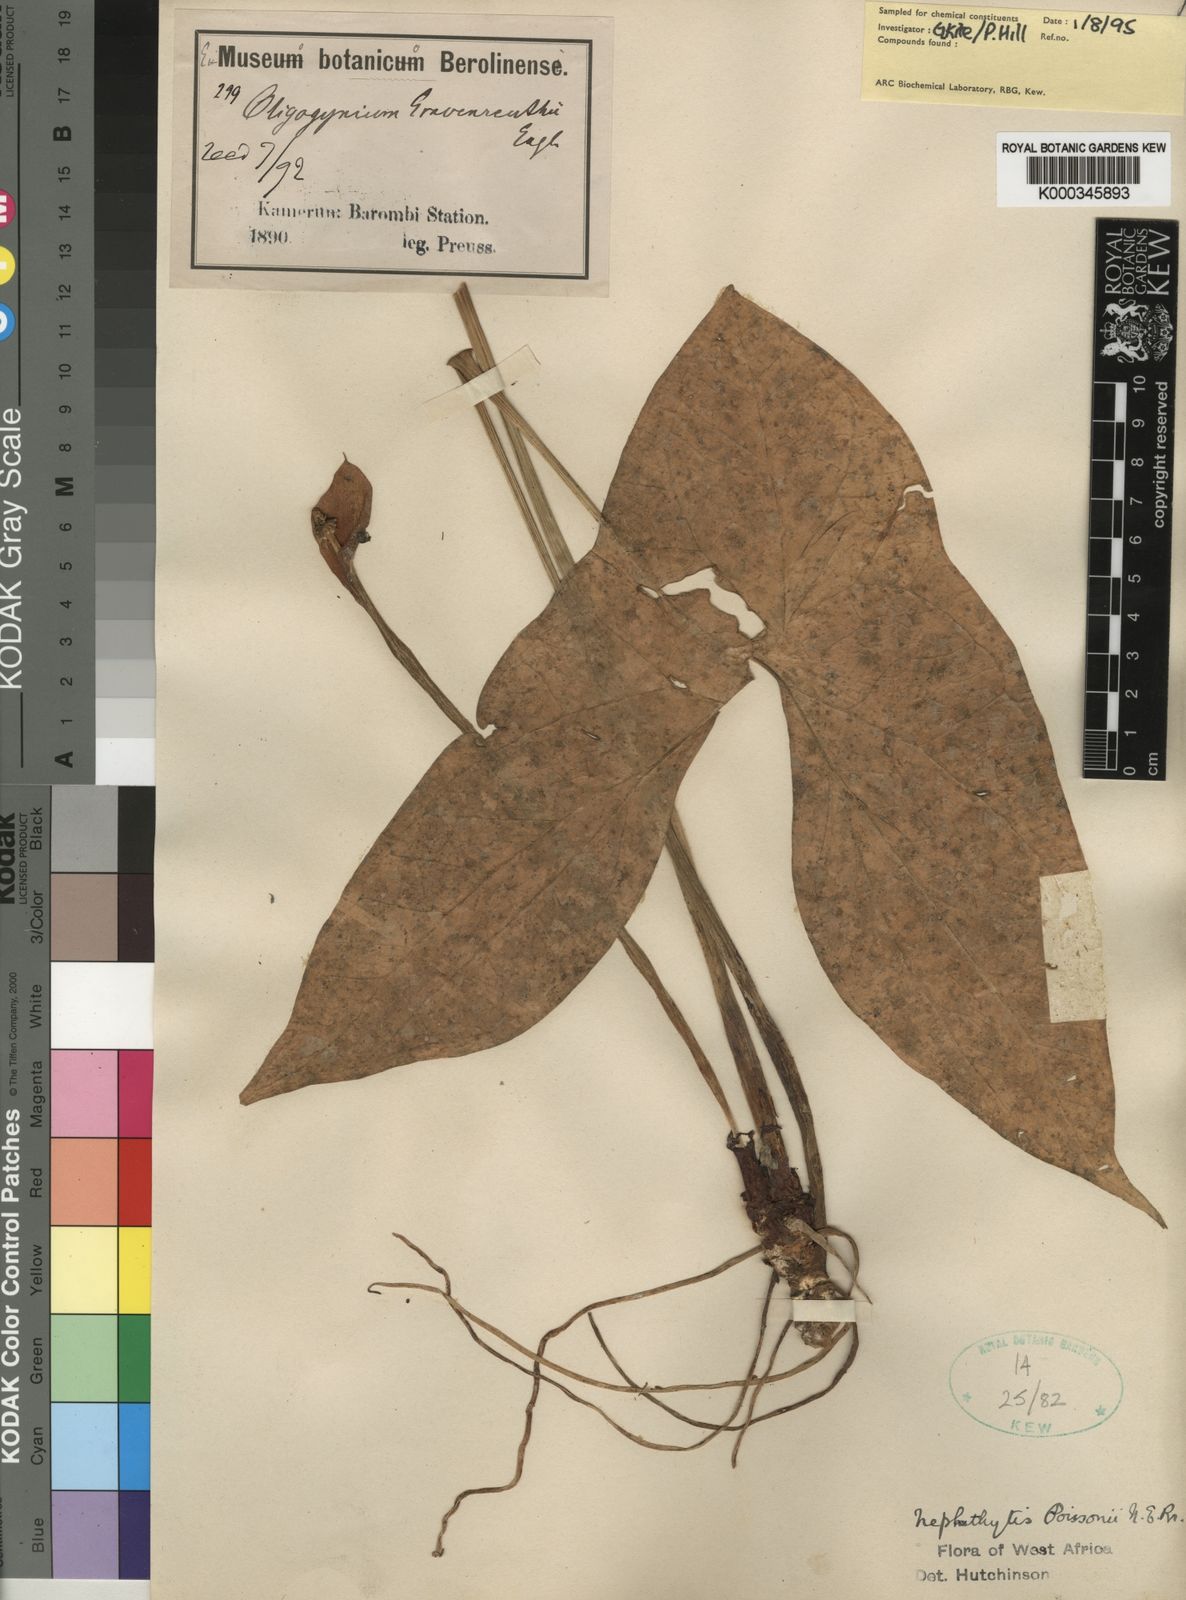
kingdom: Plantae
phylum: Tracheophyta
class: Liliopsida
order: Alismatales
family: Araceae
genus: Nephthytis
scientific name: Nephthytis poissonii
